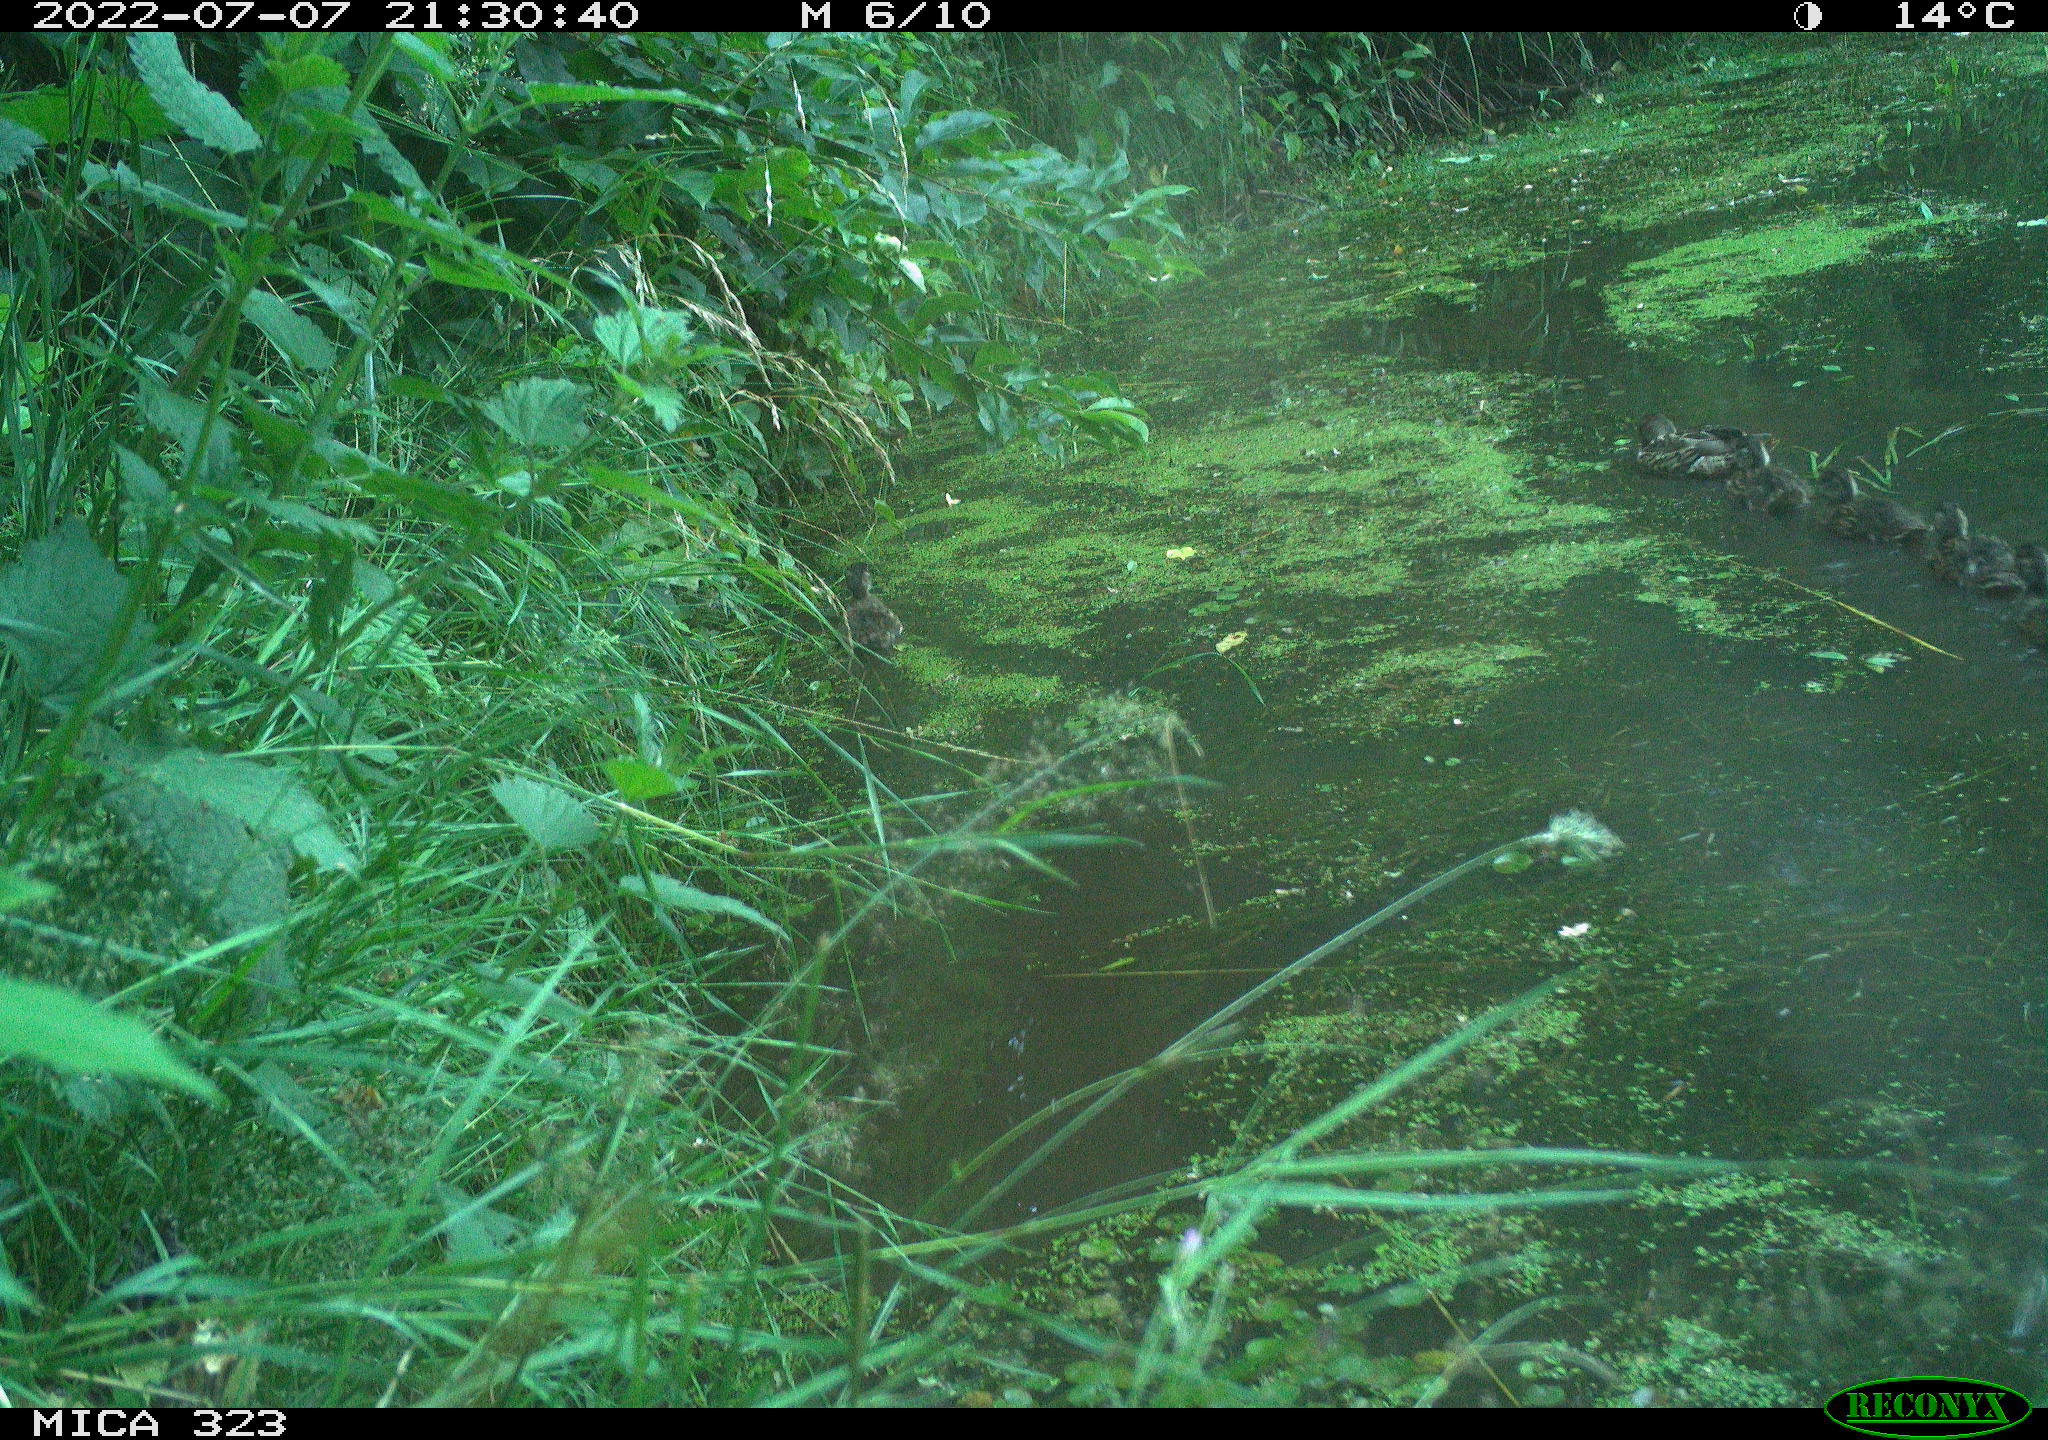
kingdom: Animalia
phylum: Chordata
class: Aves
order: Anseriformes
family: Anatidae
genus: Anas
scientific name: Anas platyrhynchos
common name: Mallard
